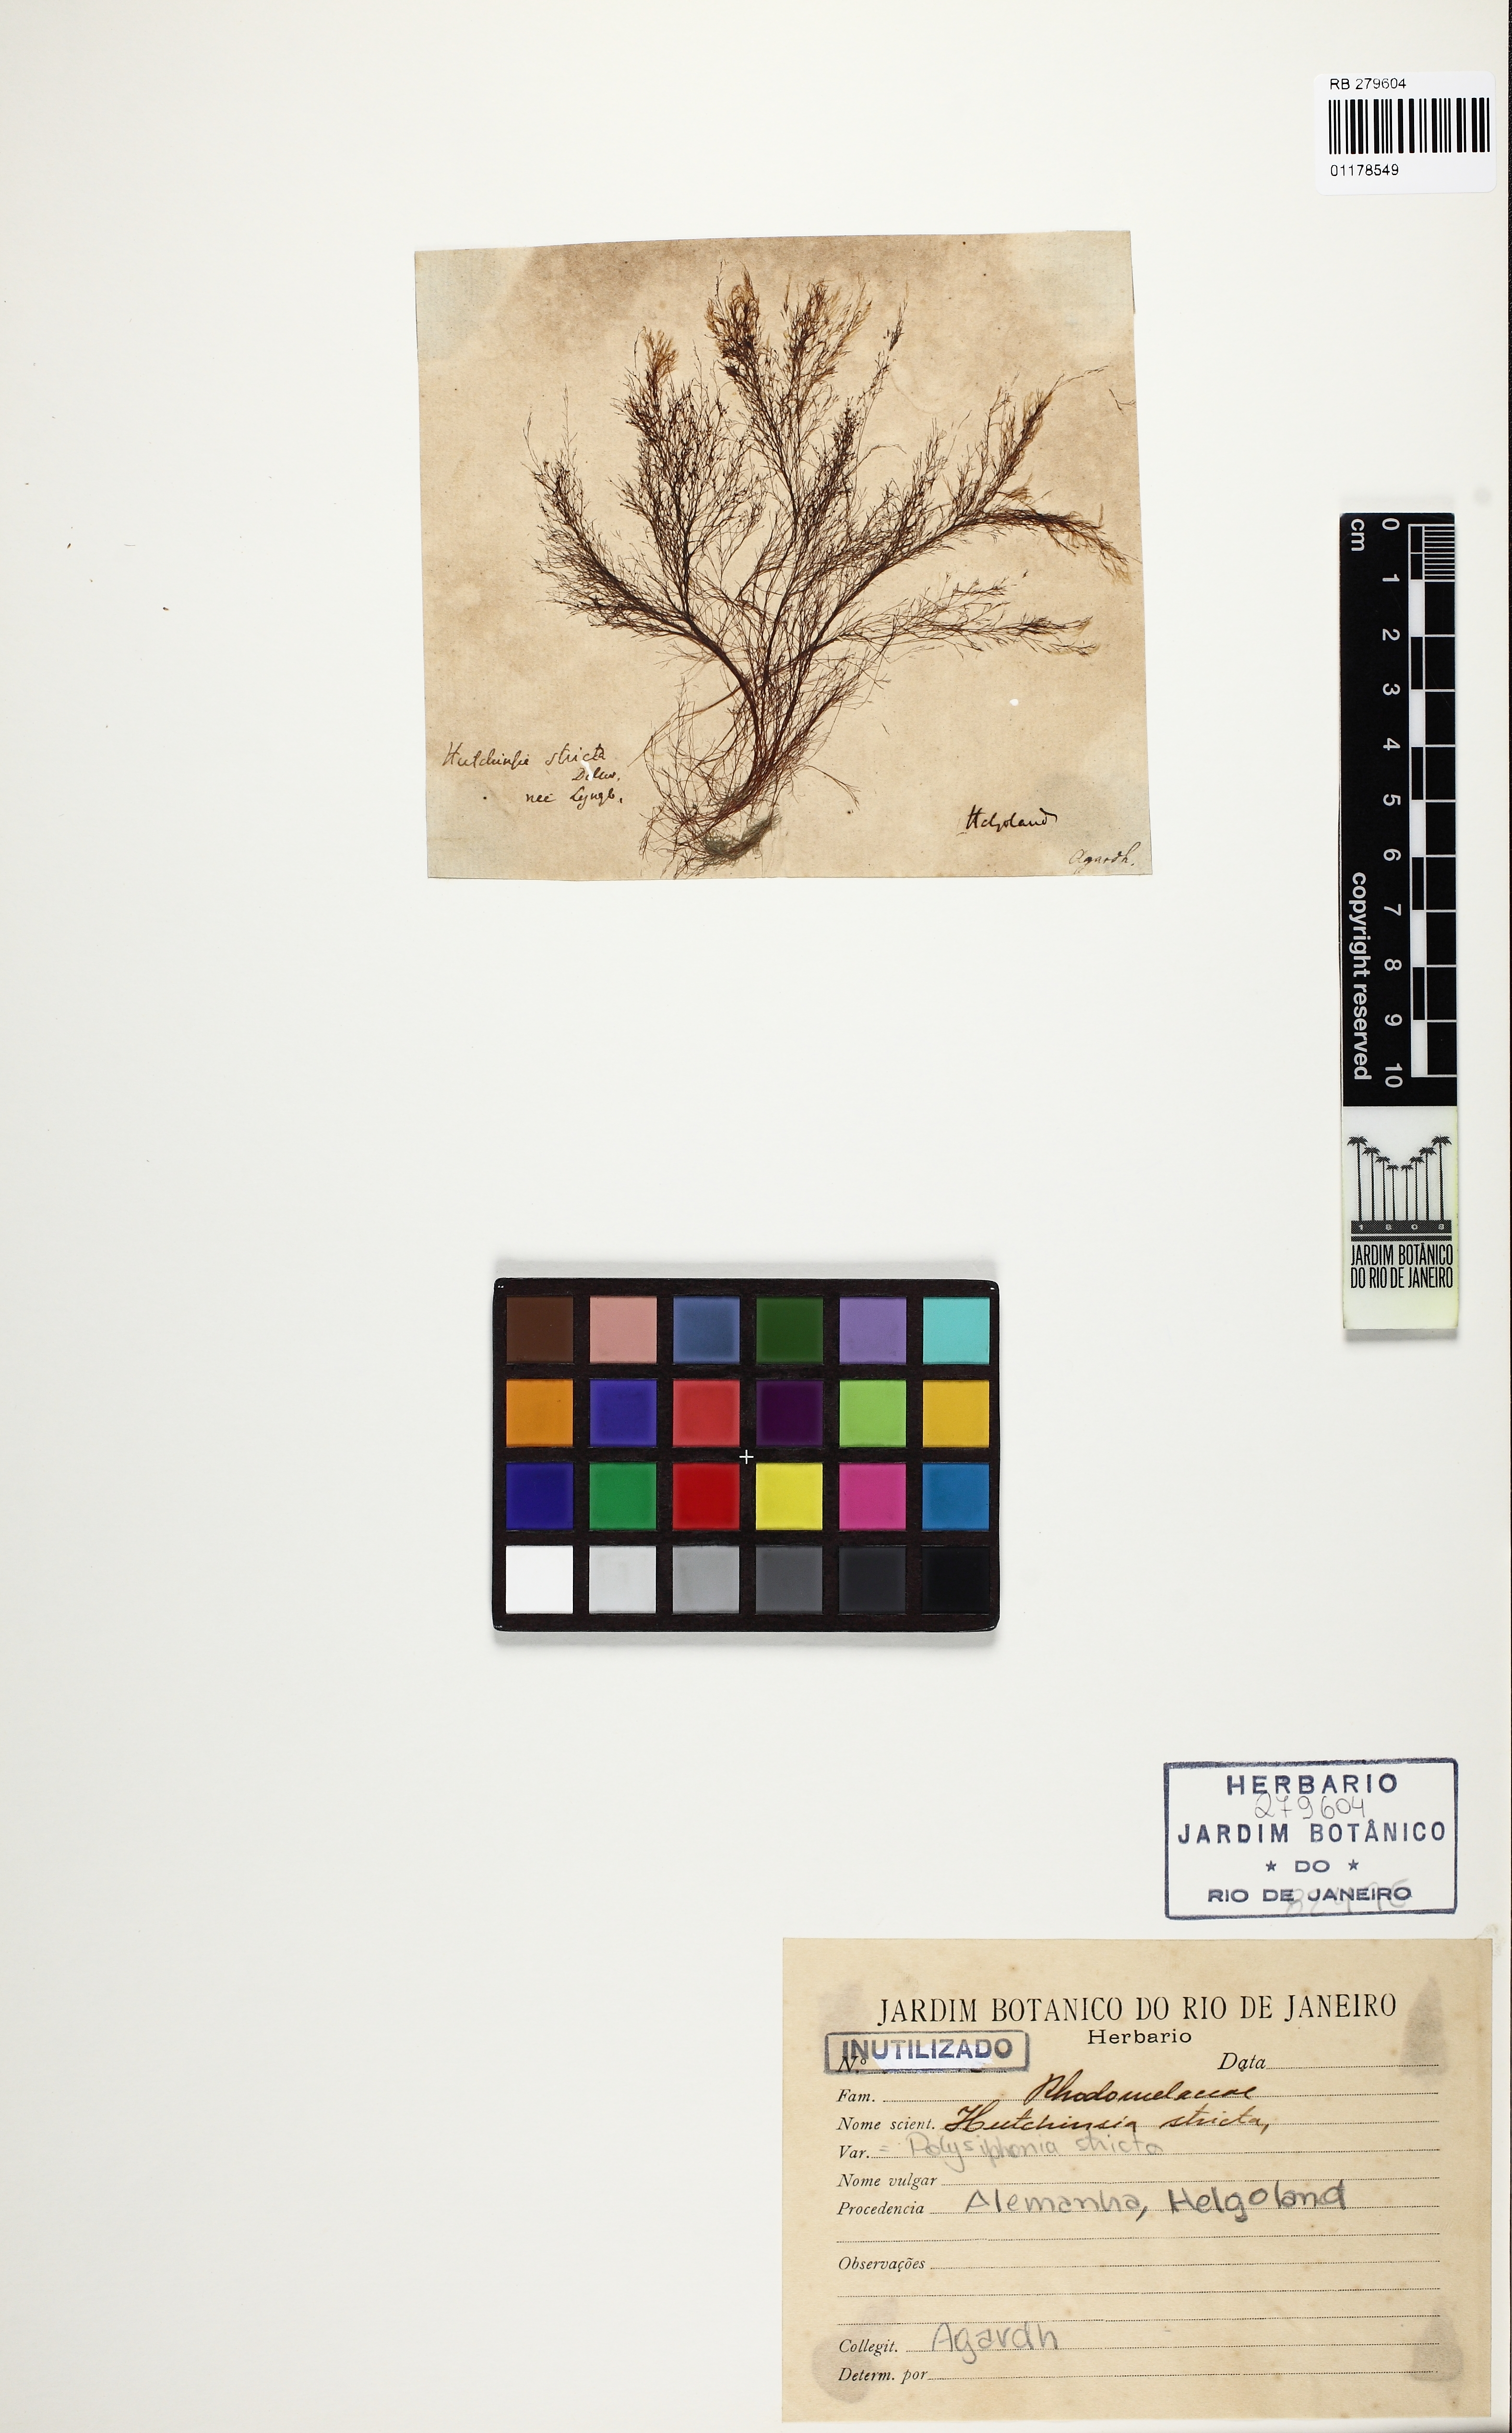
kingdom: Plantae
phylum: Rhodophyta
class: Florideophyceae
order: Ceramiales
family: Rhodomelaceae
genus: Polysiphonia
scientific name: Polysiphonia stricta
